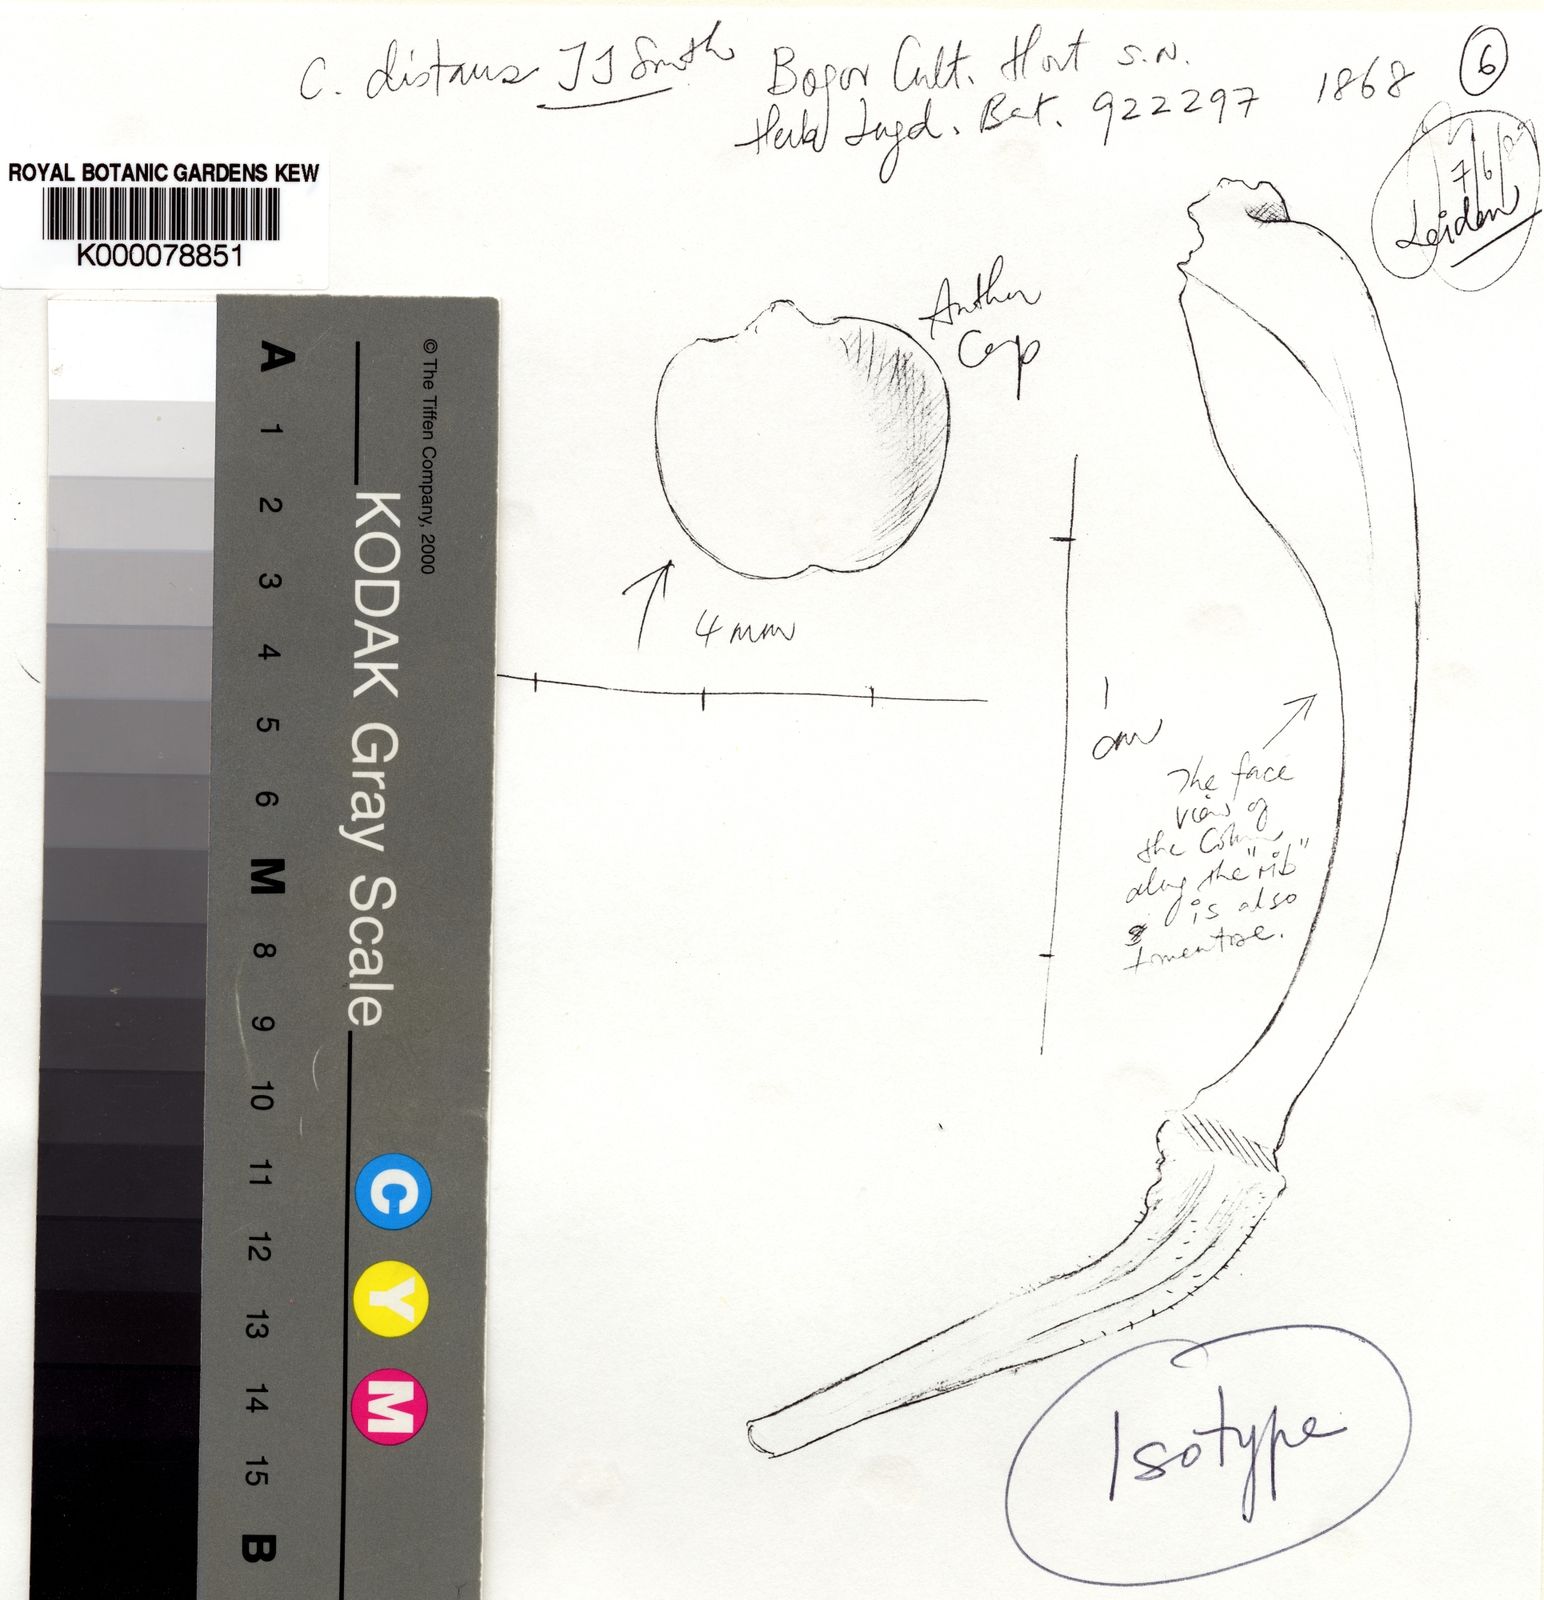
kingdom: Plantae
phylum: Tracheophyta
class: Liliopsida
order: Asparagales
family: Orchidaceae
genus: Coelogyne
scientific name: Coelogyne distans
